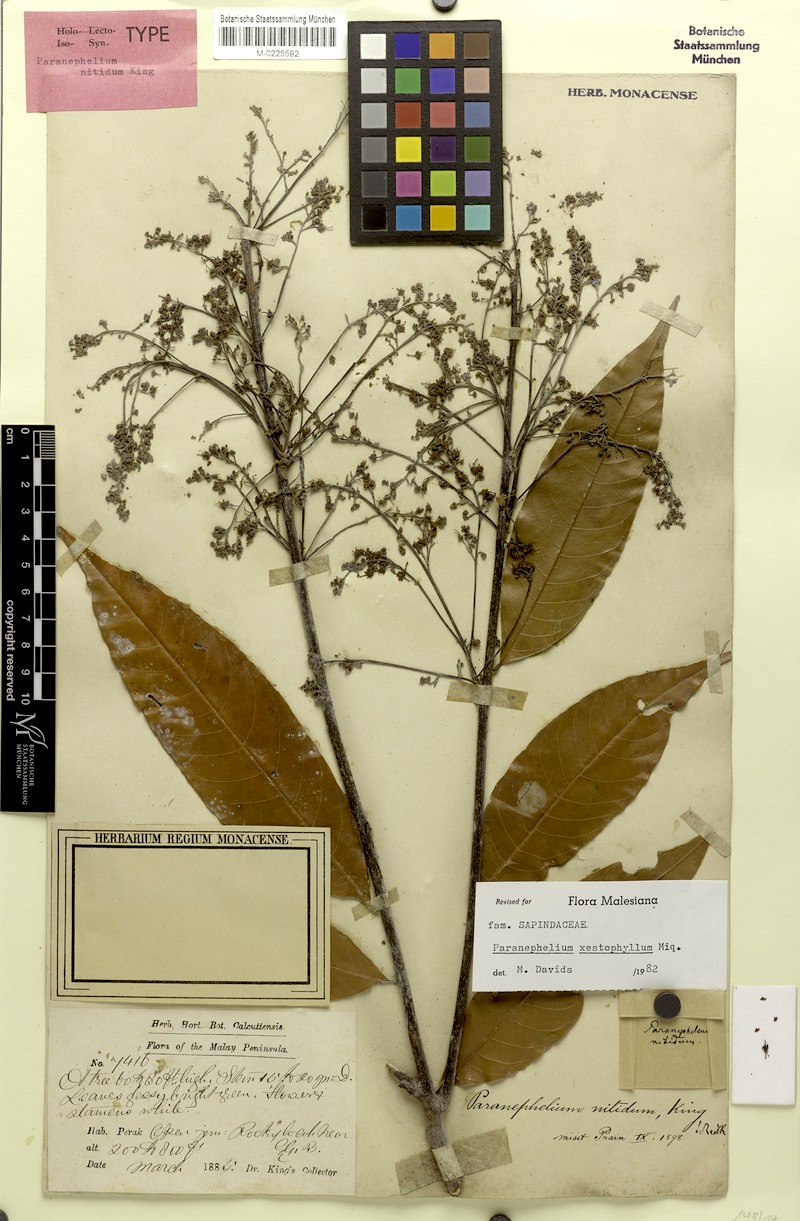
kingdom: Plantae
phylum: Tracheophyta
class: Magnoliopsida
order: Sapindales
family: Sapindaceae
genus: Paranephelium
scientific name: Paranephelium xestophyllum
